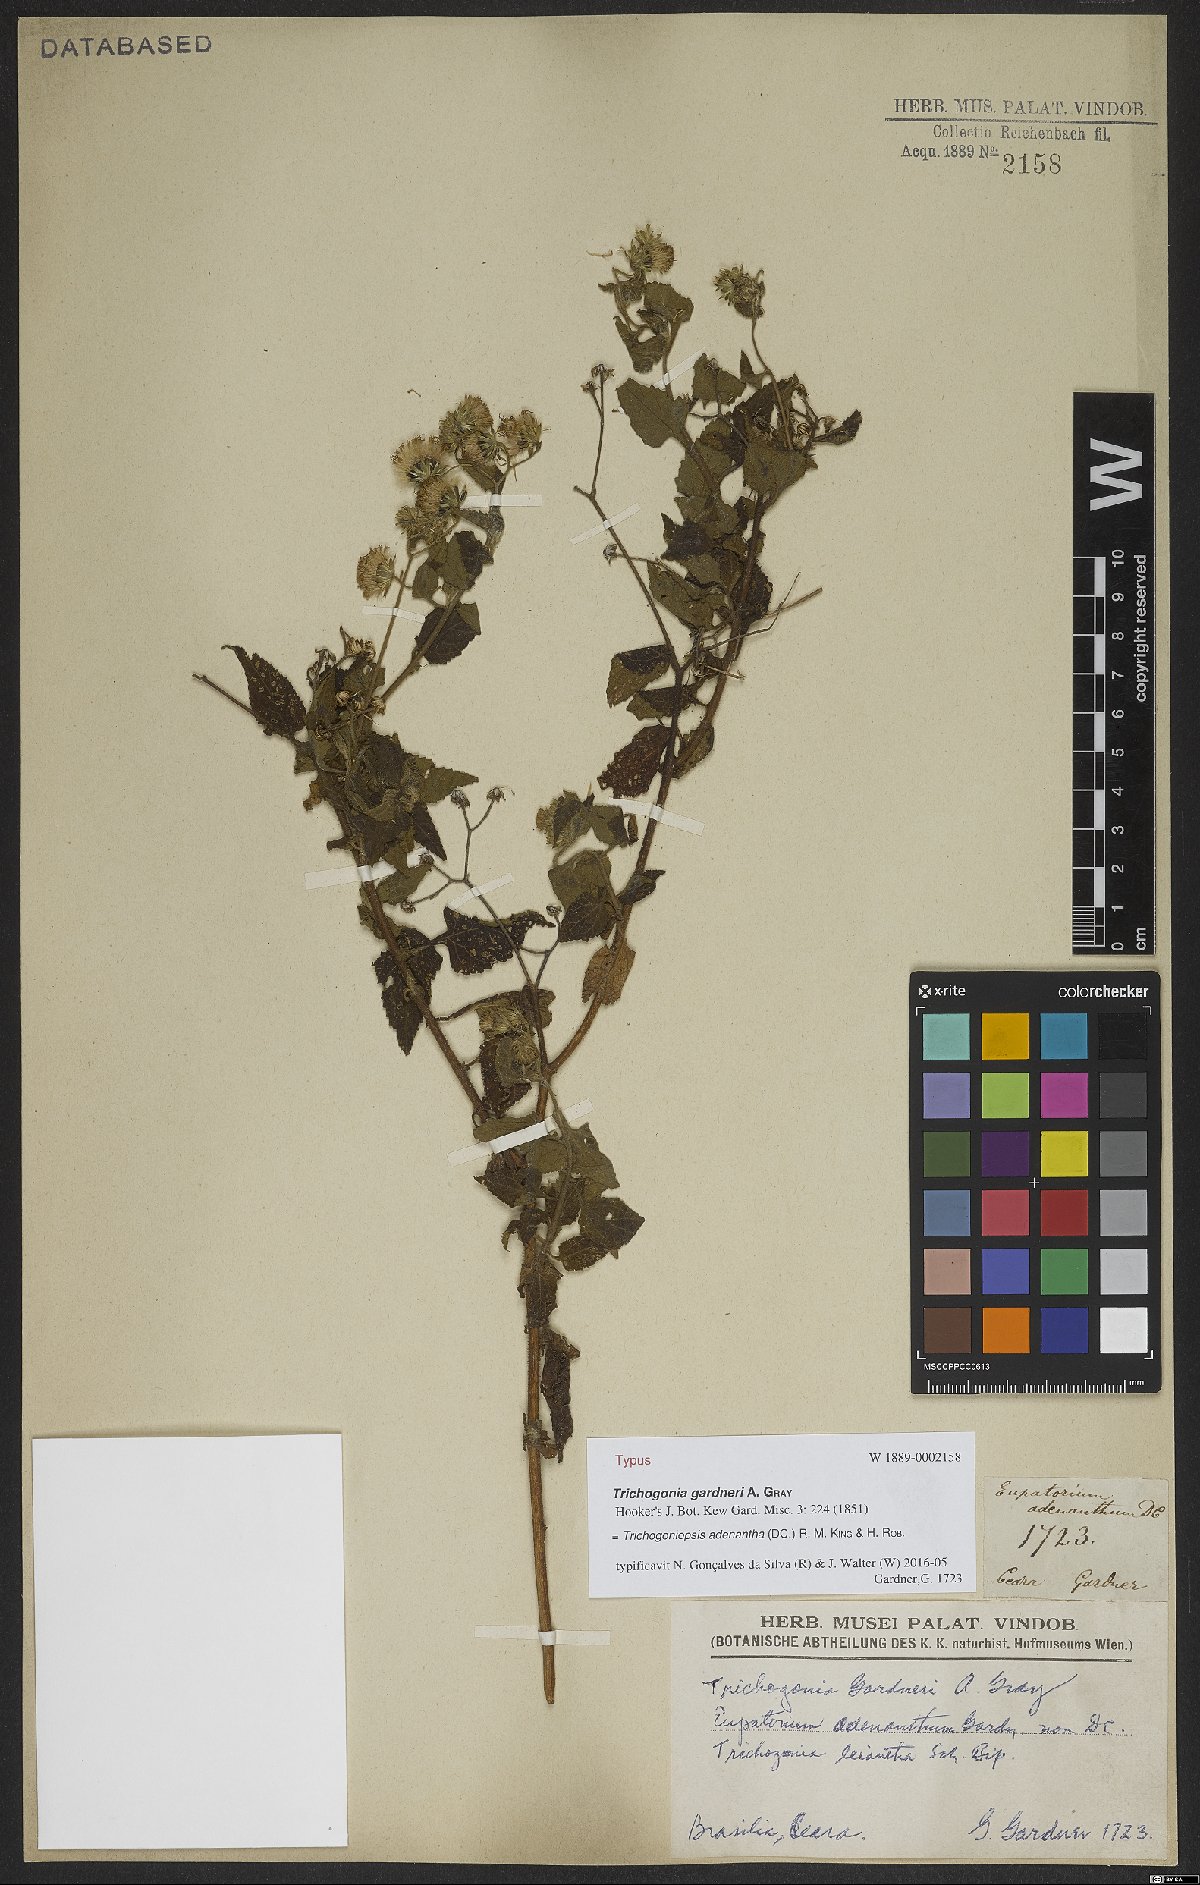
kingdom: Plantae
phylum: Tracheophyta
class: Magnoliopsida
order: Asterales
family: Asteraceae
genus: Trichogoniopsis
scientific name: Trichogoniopsis adenantha
